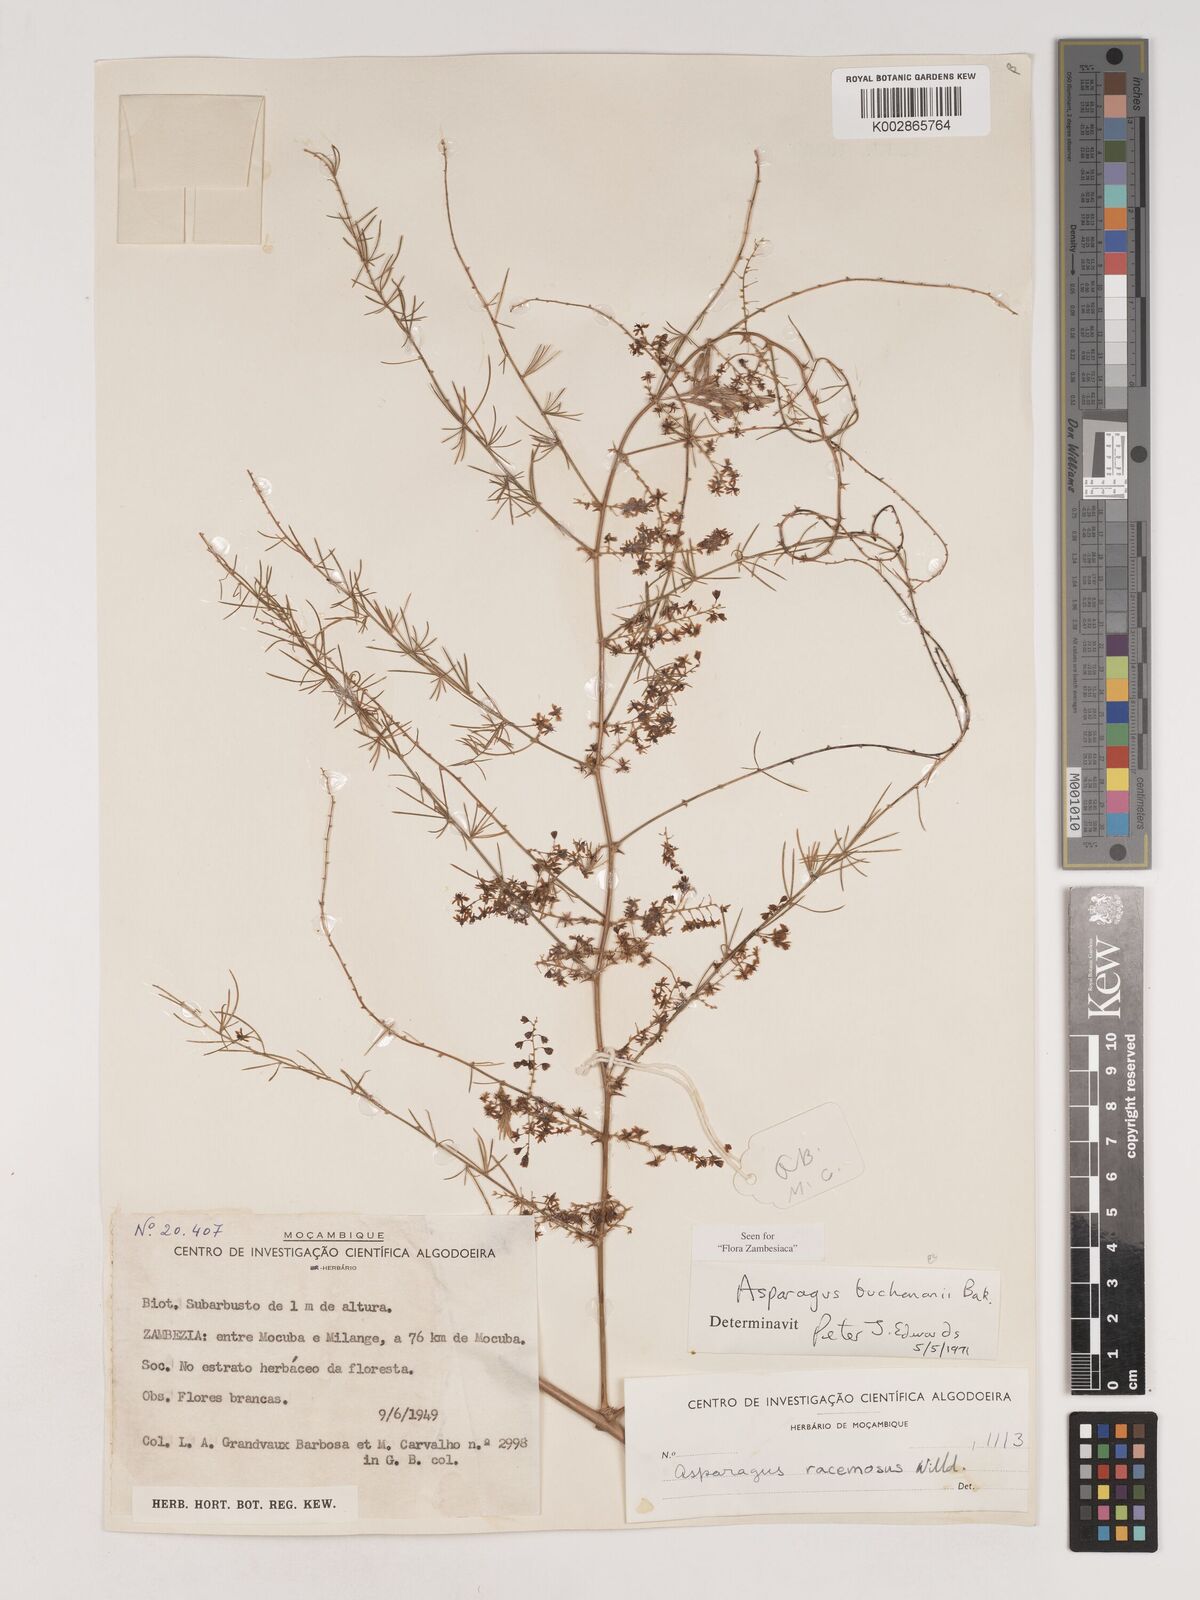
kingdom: Plantae
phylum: Tracheophyta
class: Liliopsida
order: Asparagales
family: Asparagaceae
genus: Asparagus
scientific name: Asparagus buchananii
